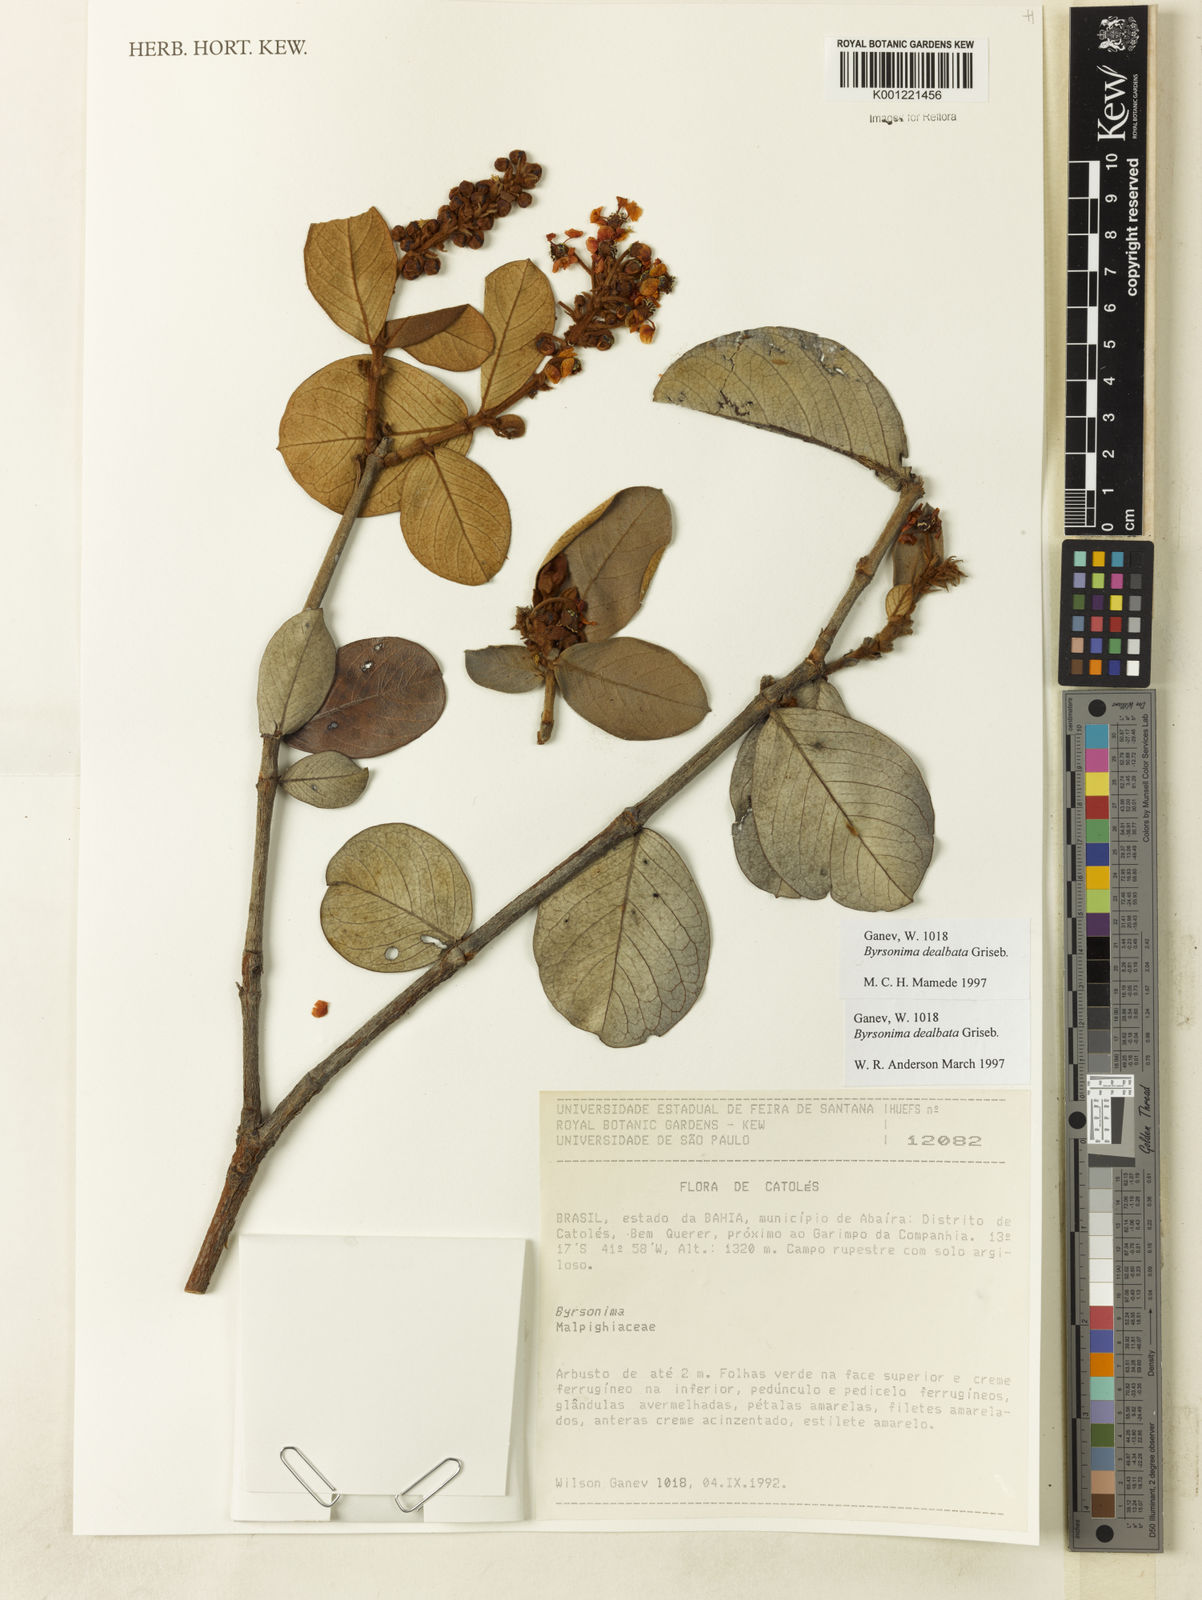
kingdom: Plantae
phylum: Tracheophyta
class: Magnoliopsida
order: Malpighiales
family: Malpighiaceae
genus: Byrsonima
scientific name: Byrsonima dealbata
